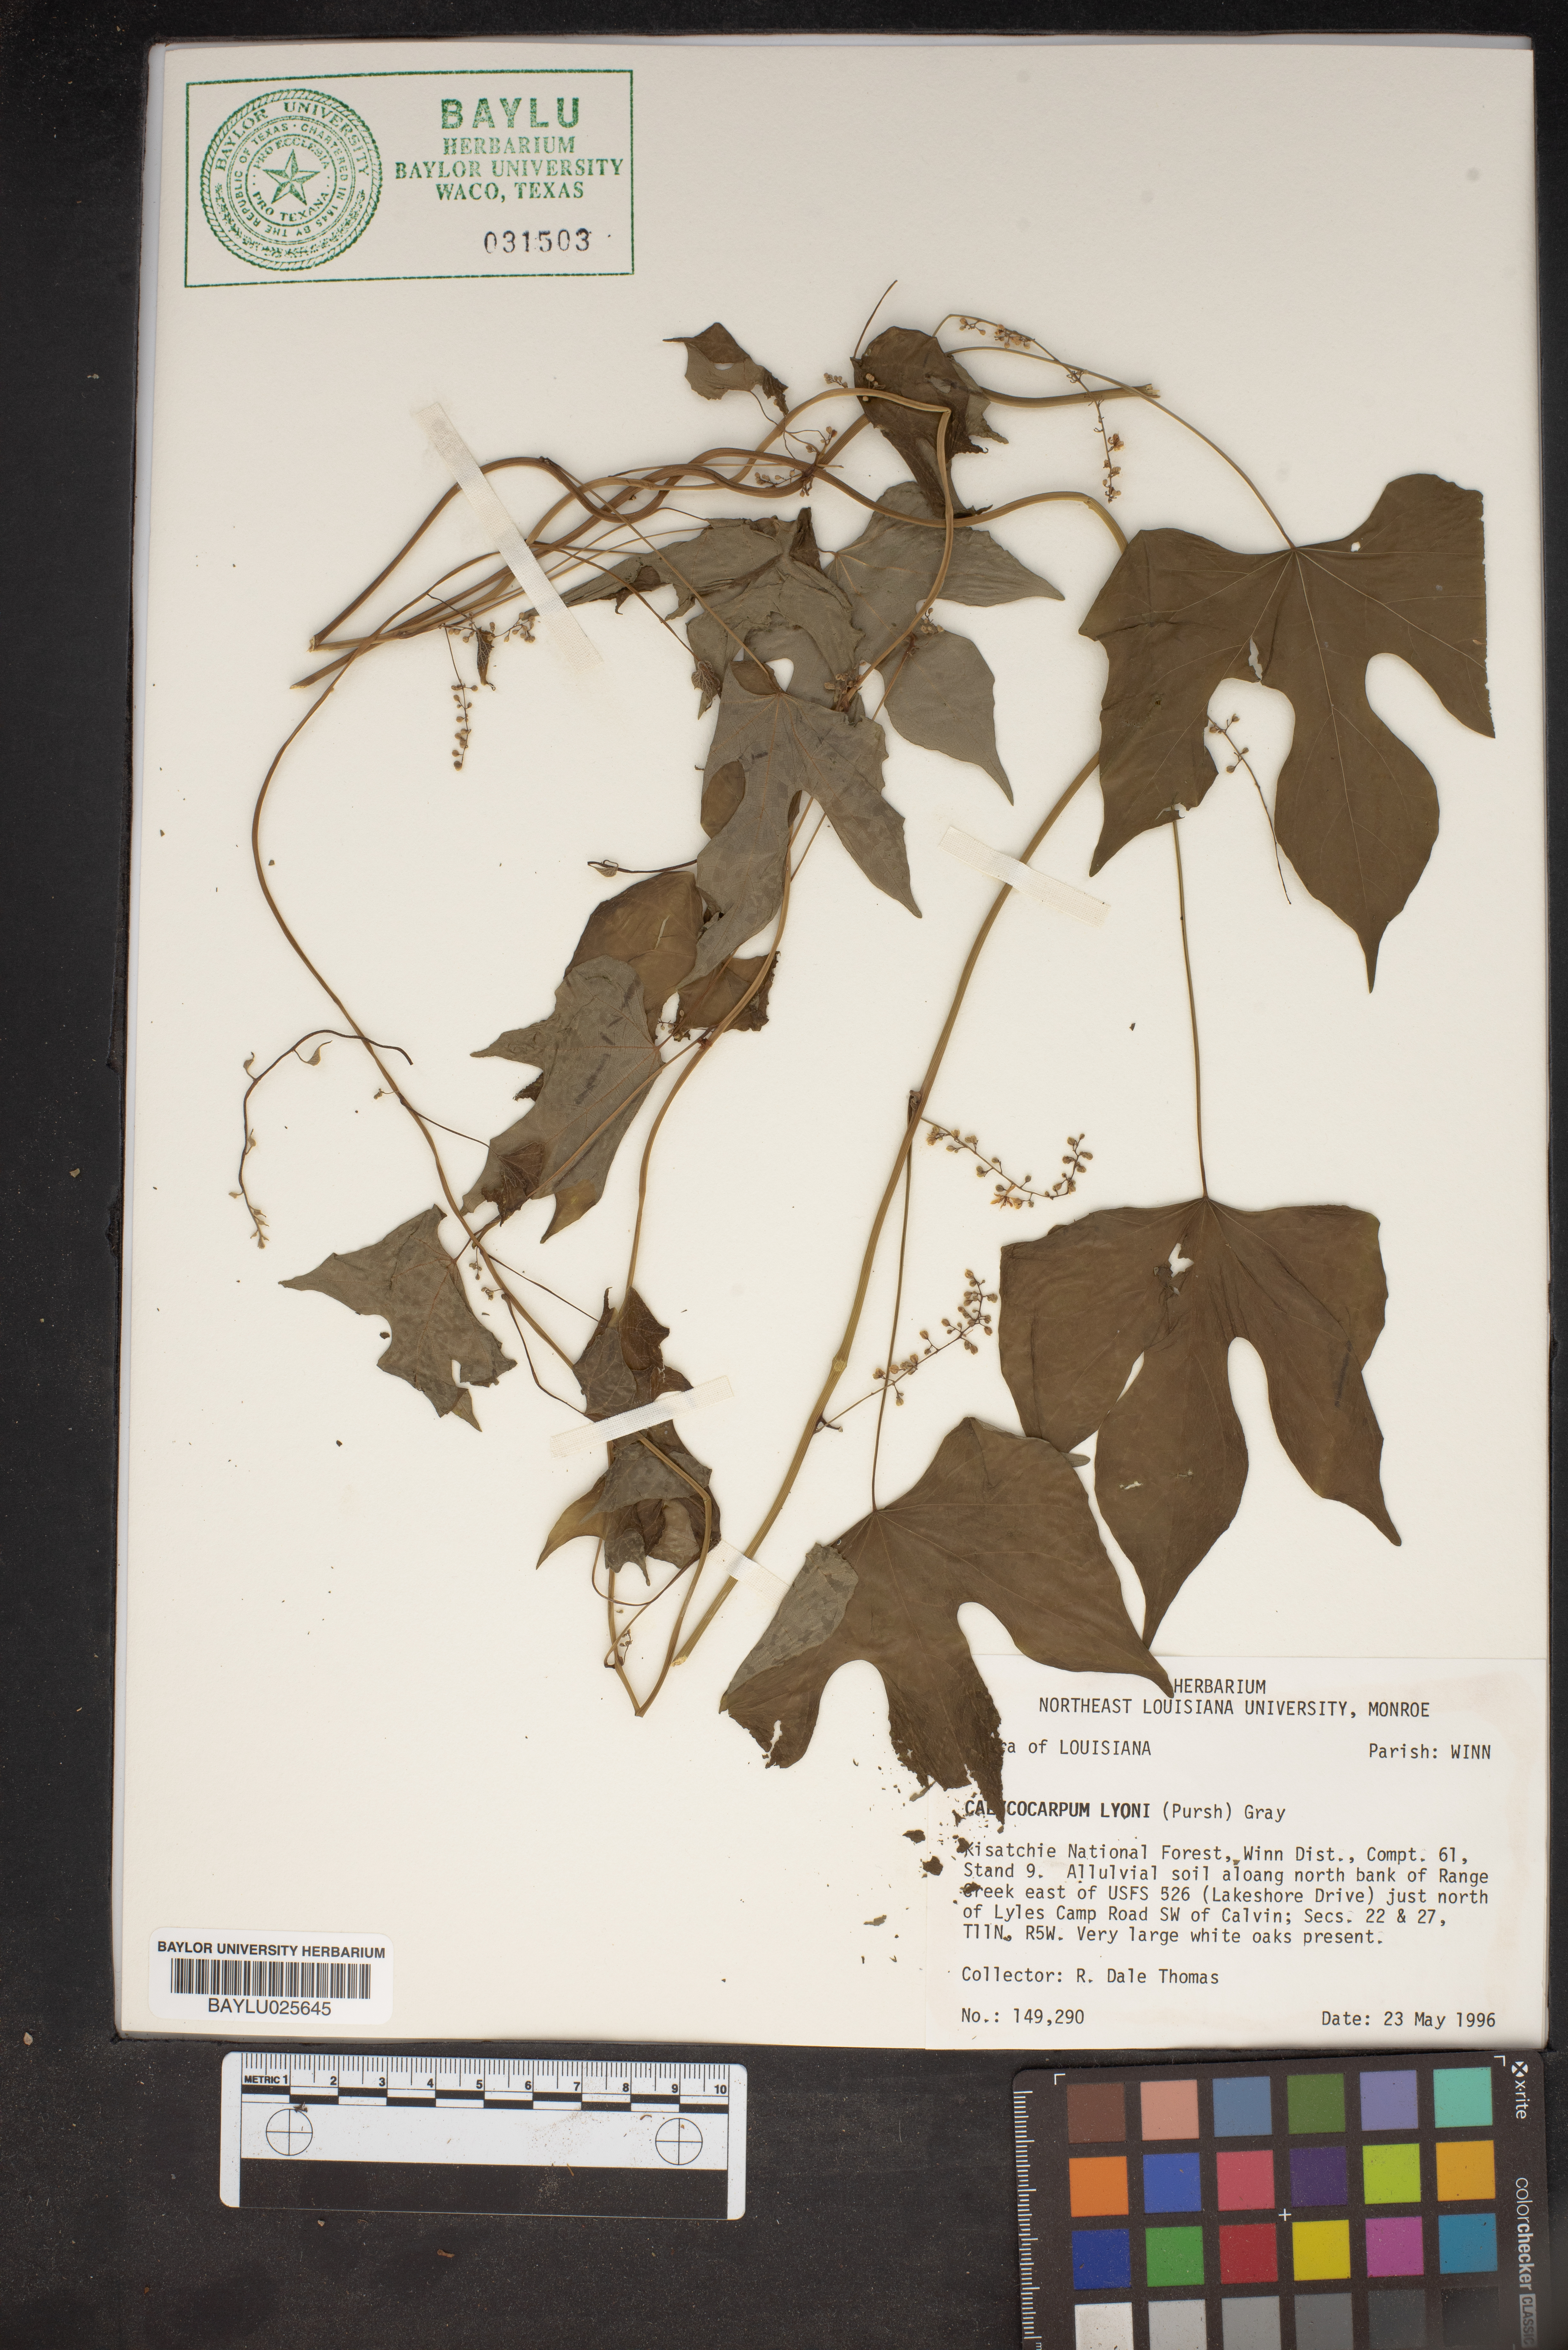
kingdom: Plantae
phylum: Tracheophyta
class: Magnoliopsida
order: Ranunculales
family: Menispermaceae
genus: Calycocarpum
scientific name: Calycocarpum lyonii
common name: Cupseed
